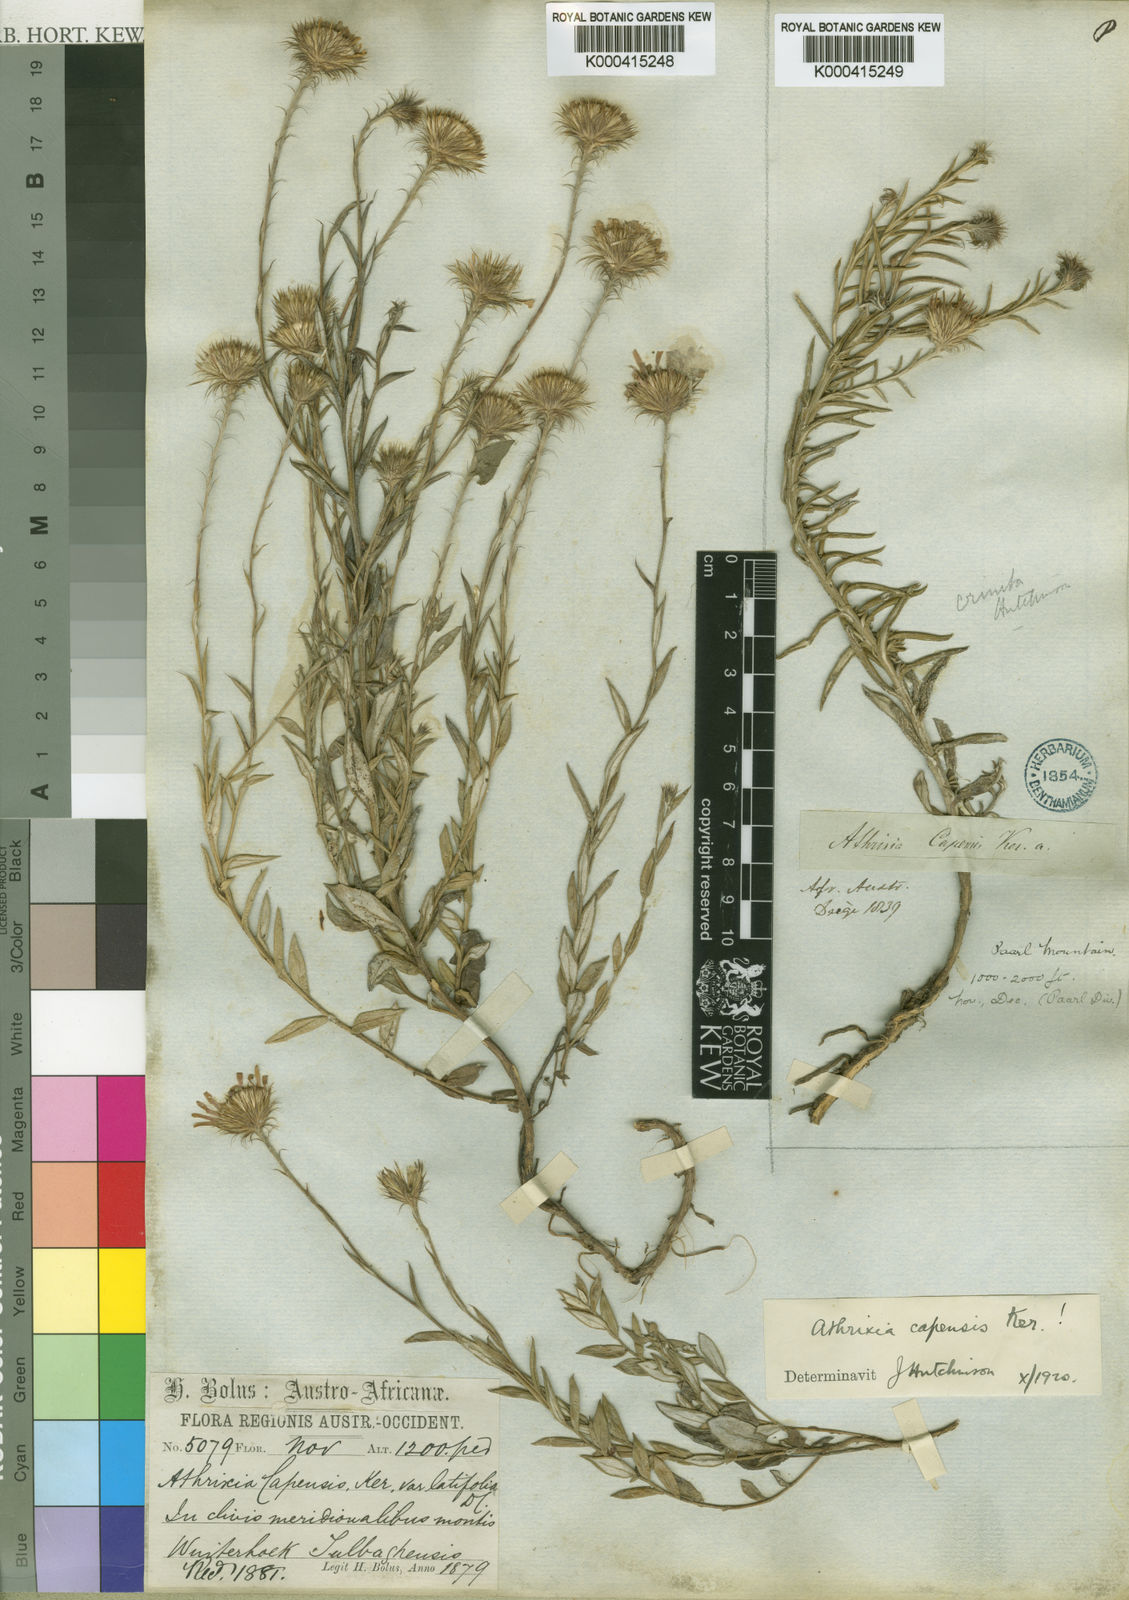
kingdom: Plantae
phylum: Tracheophyta
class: Magnoliopsida
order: Asterales
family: Asteraceae
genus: Athrixia
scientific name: Athrixia capensis
